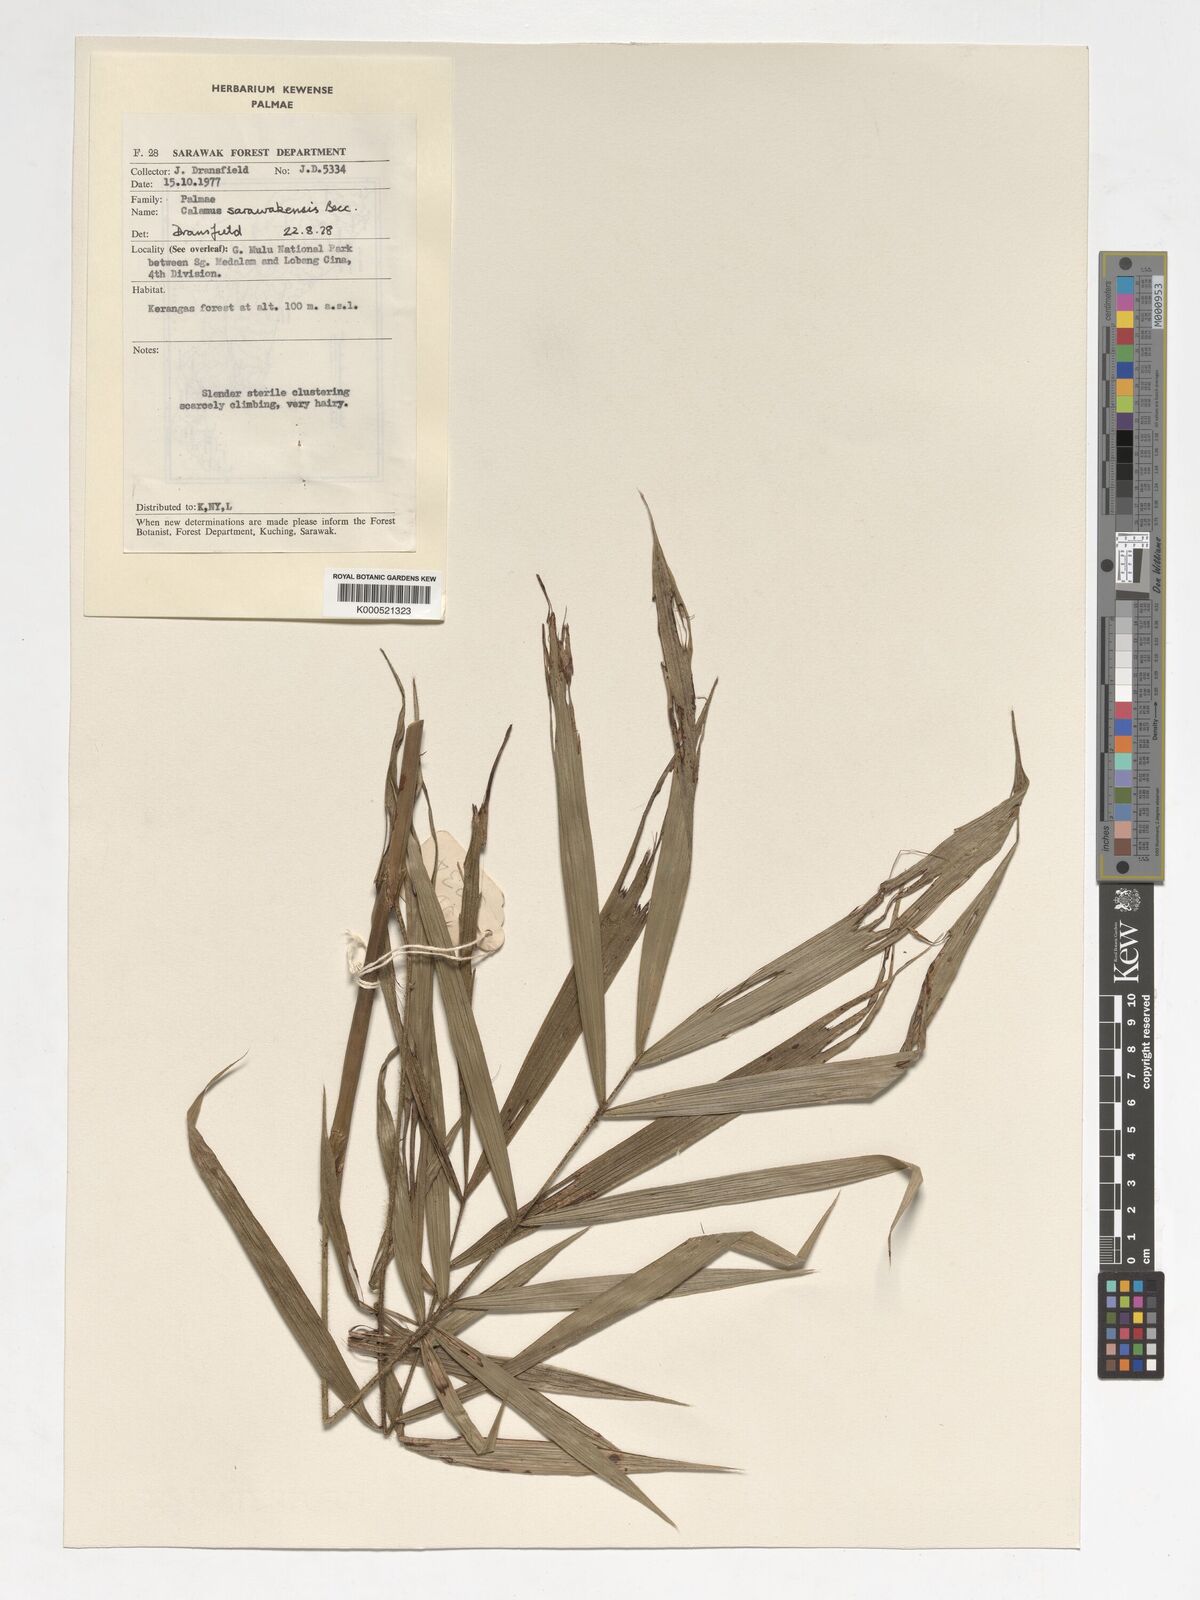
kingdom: Plantae
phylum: Tracheophyta
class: Liliopsida
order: Arecales
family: Arecaceae
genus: Calamus
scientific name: Calamus sarawakensis
